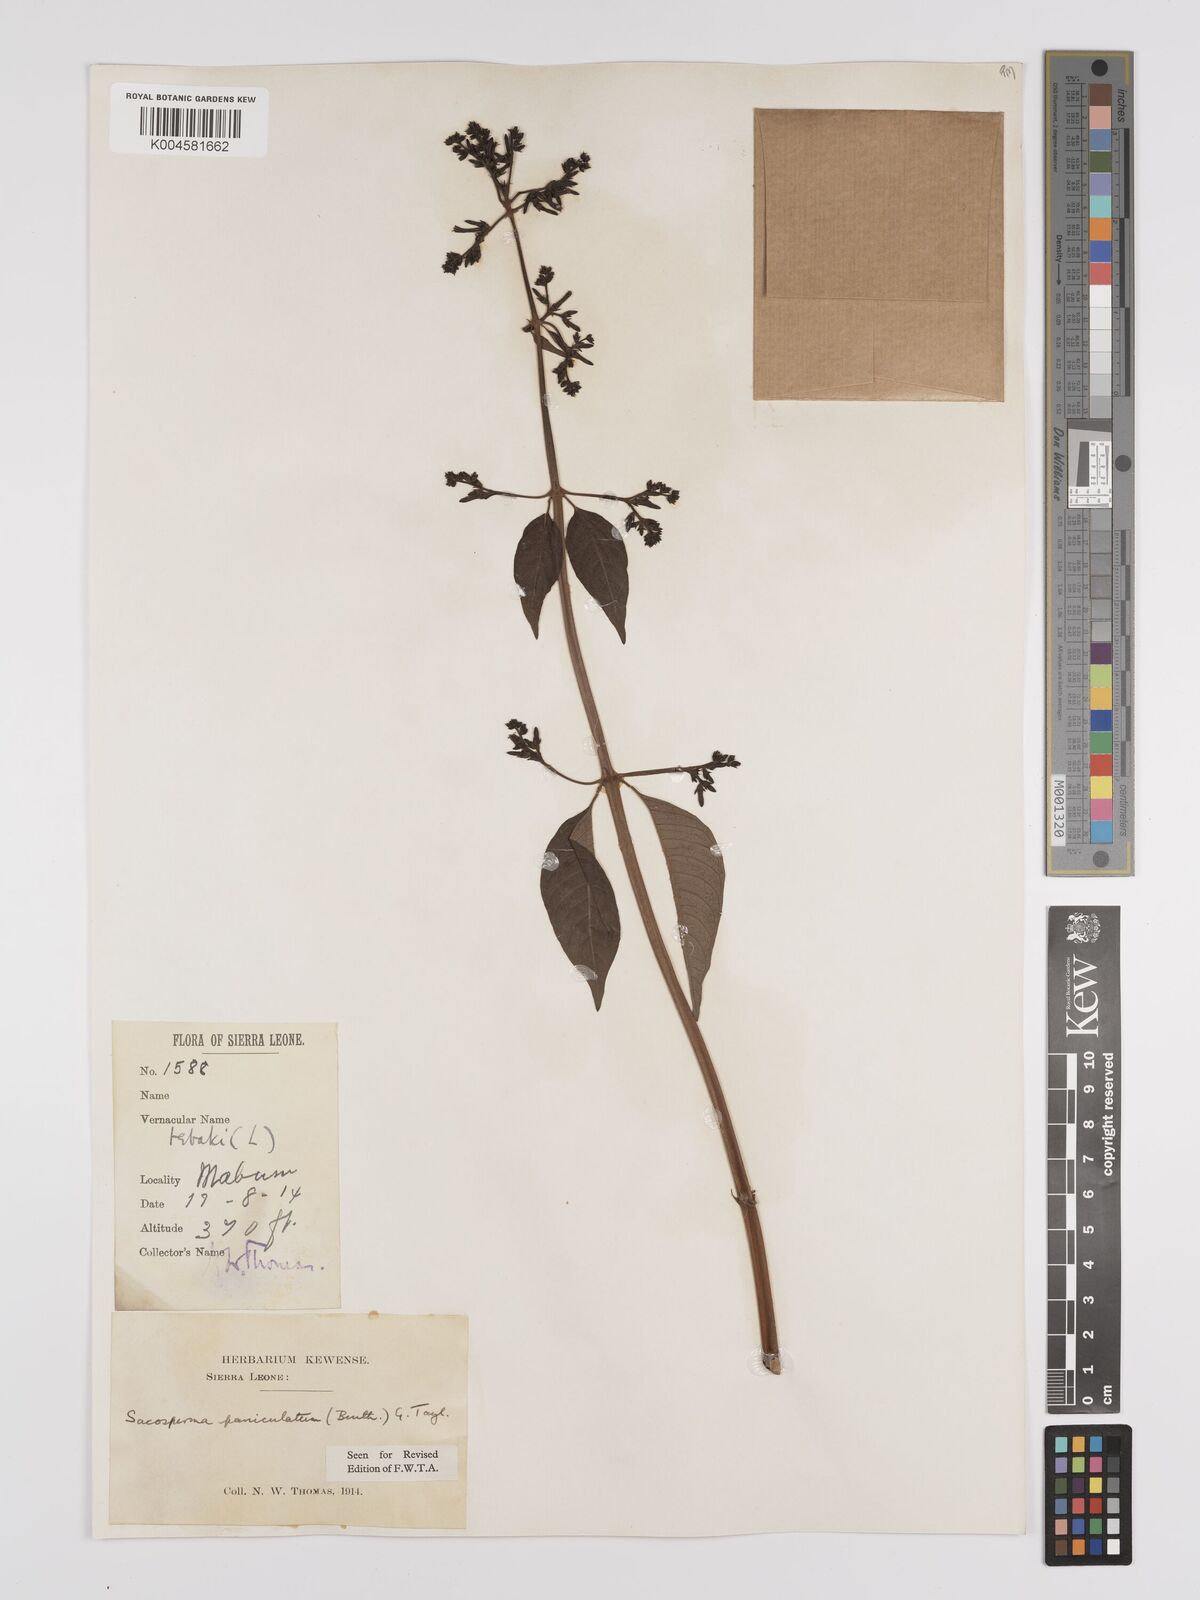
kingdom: Plantae
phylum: Tracheophyta
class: Magnoliopsida
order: Gentianales
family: Rubiaceae
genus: Sacosperma
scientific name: Sacosperma paniculatum
